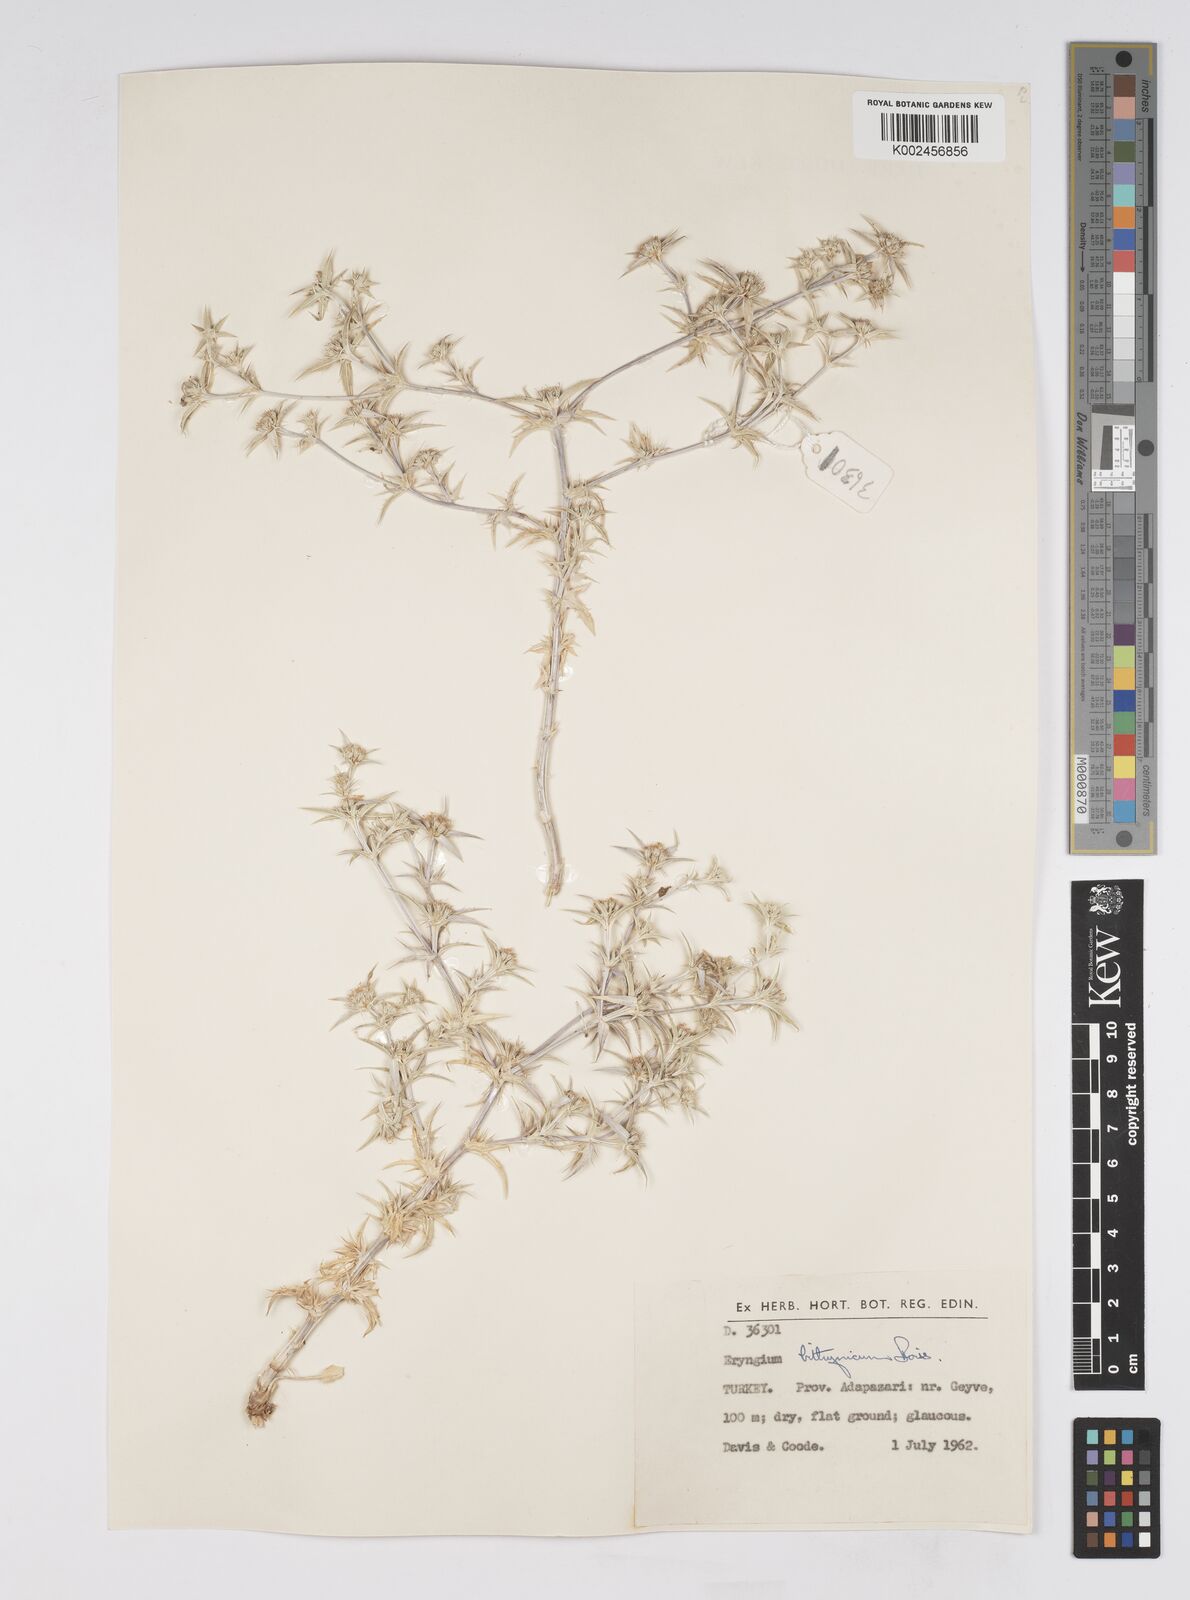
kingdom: Plantae
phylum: Tracheophyta
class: Magnoliopsida
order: Apiales
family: Apiaceae
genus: Eryngium
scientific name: Eryngium bithynicum
